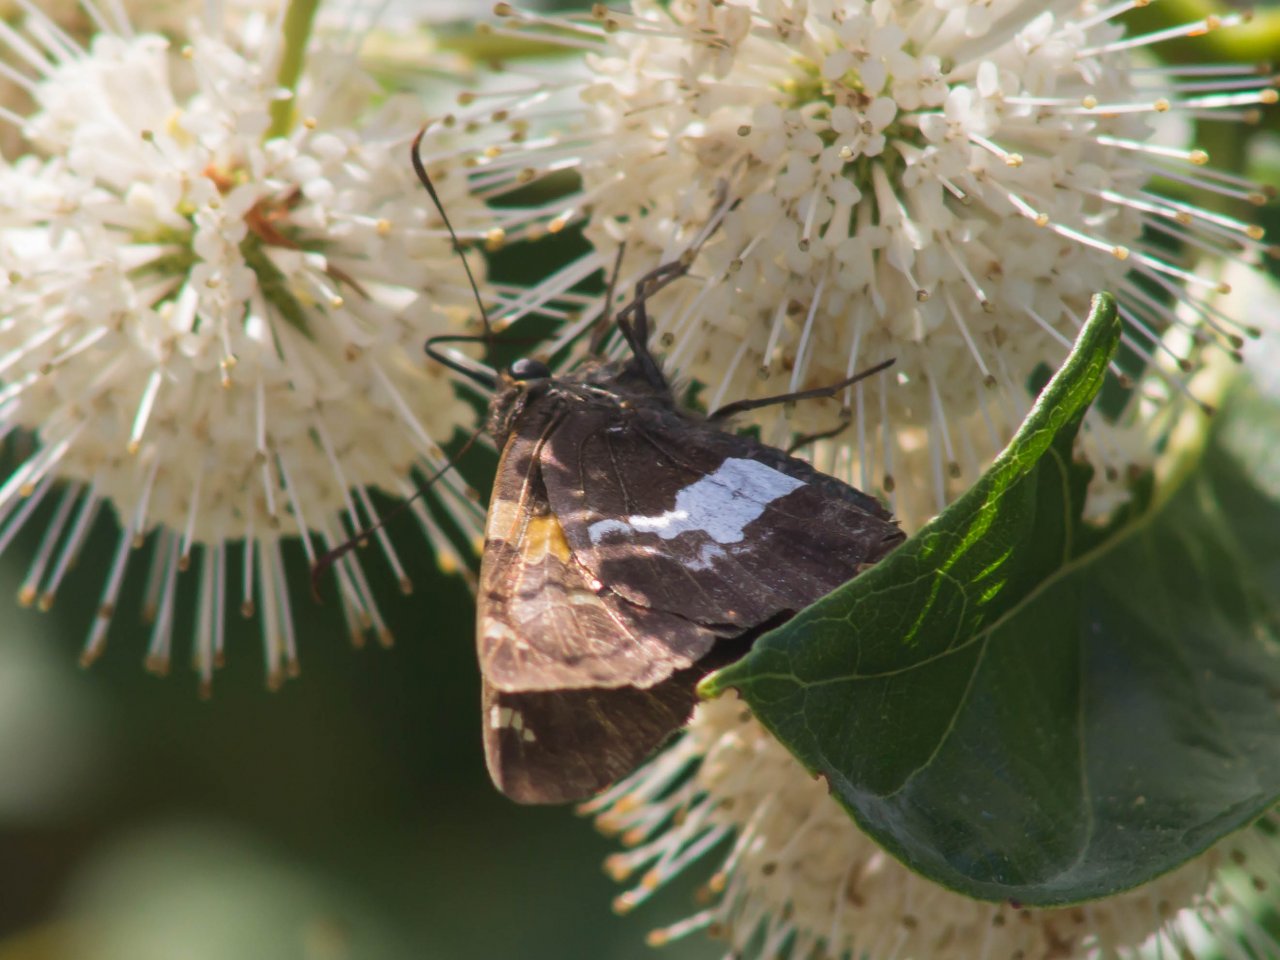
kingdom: Animalia
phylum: Arthropoda
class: Insecta
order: Lepidoptera
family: Hesperiidae
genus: Epargyreus
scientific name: Epargyreus clarus
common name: Silver-spotted Skipper
